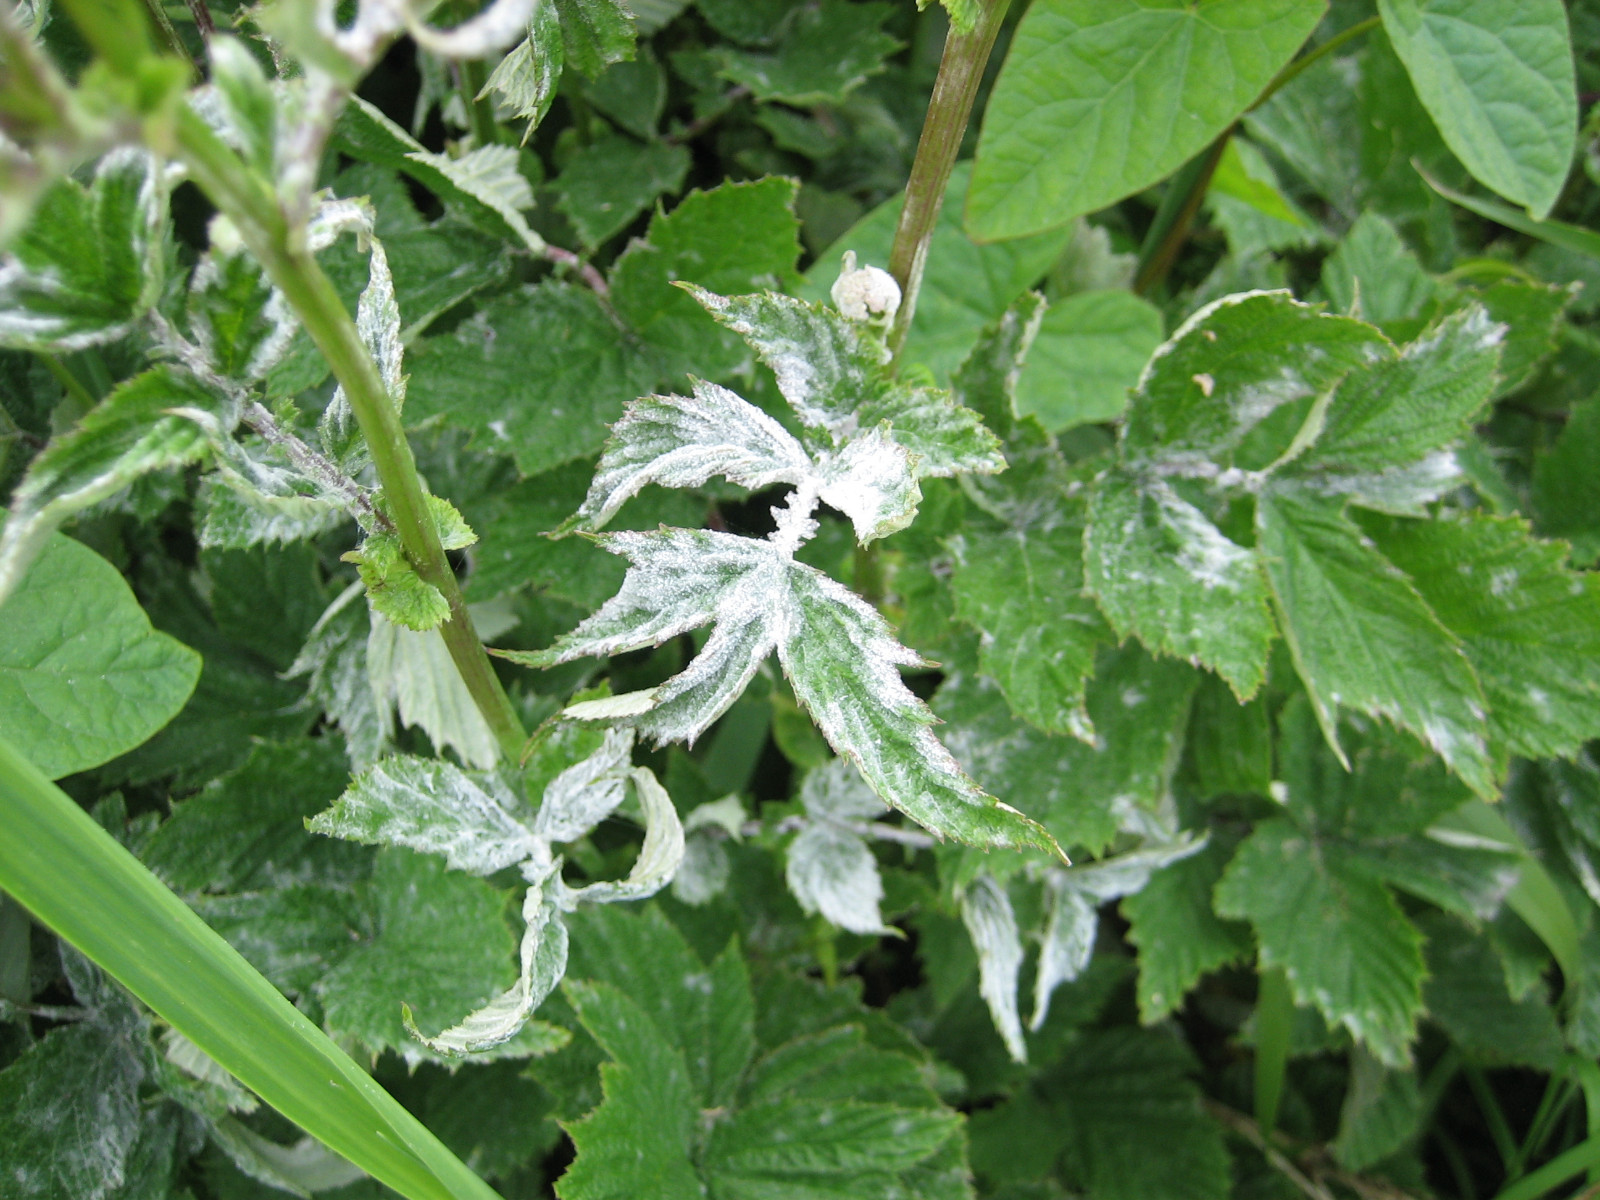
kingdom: Fungi
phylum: Ascomycota
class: Leotiomycetes
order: Helotiales
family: Erysiphaceae
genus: Podosphaera
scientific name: Podosphaera filipendulae
